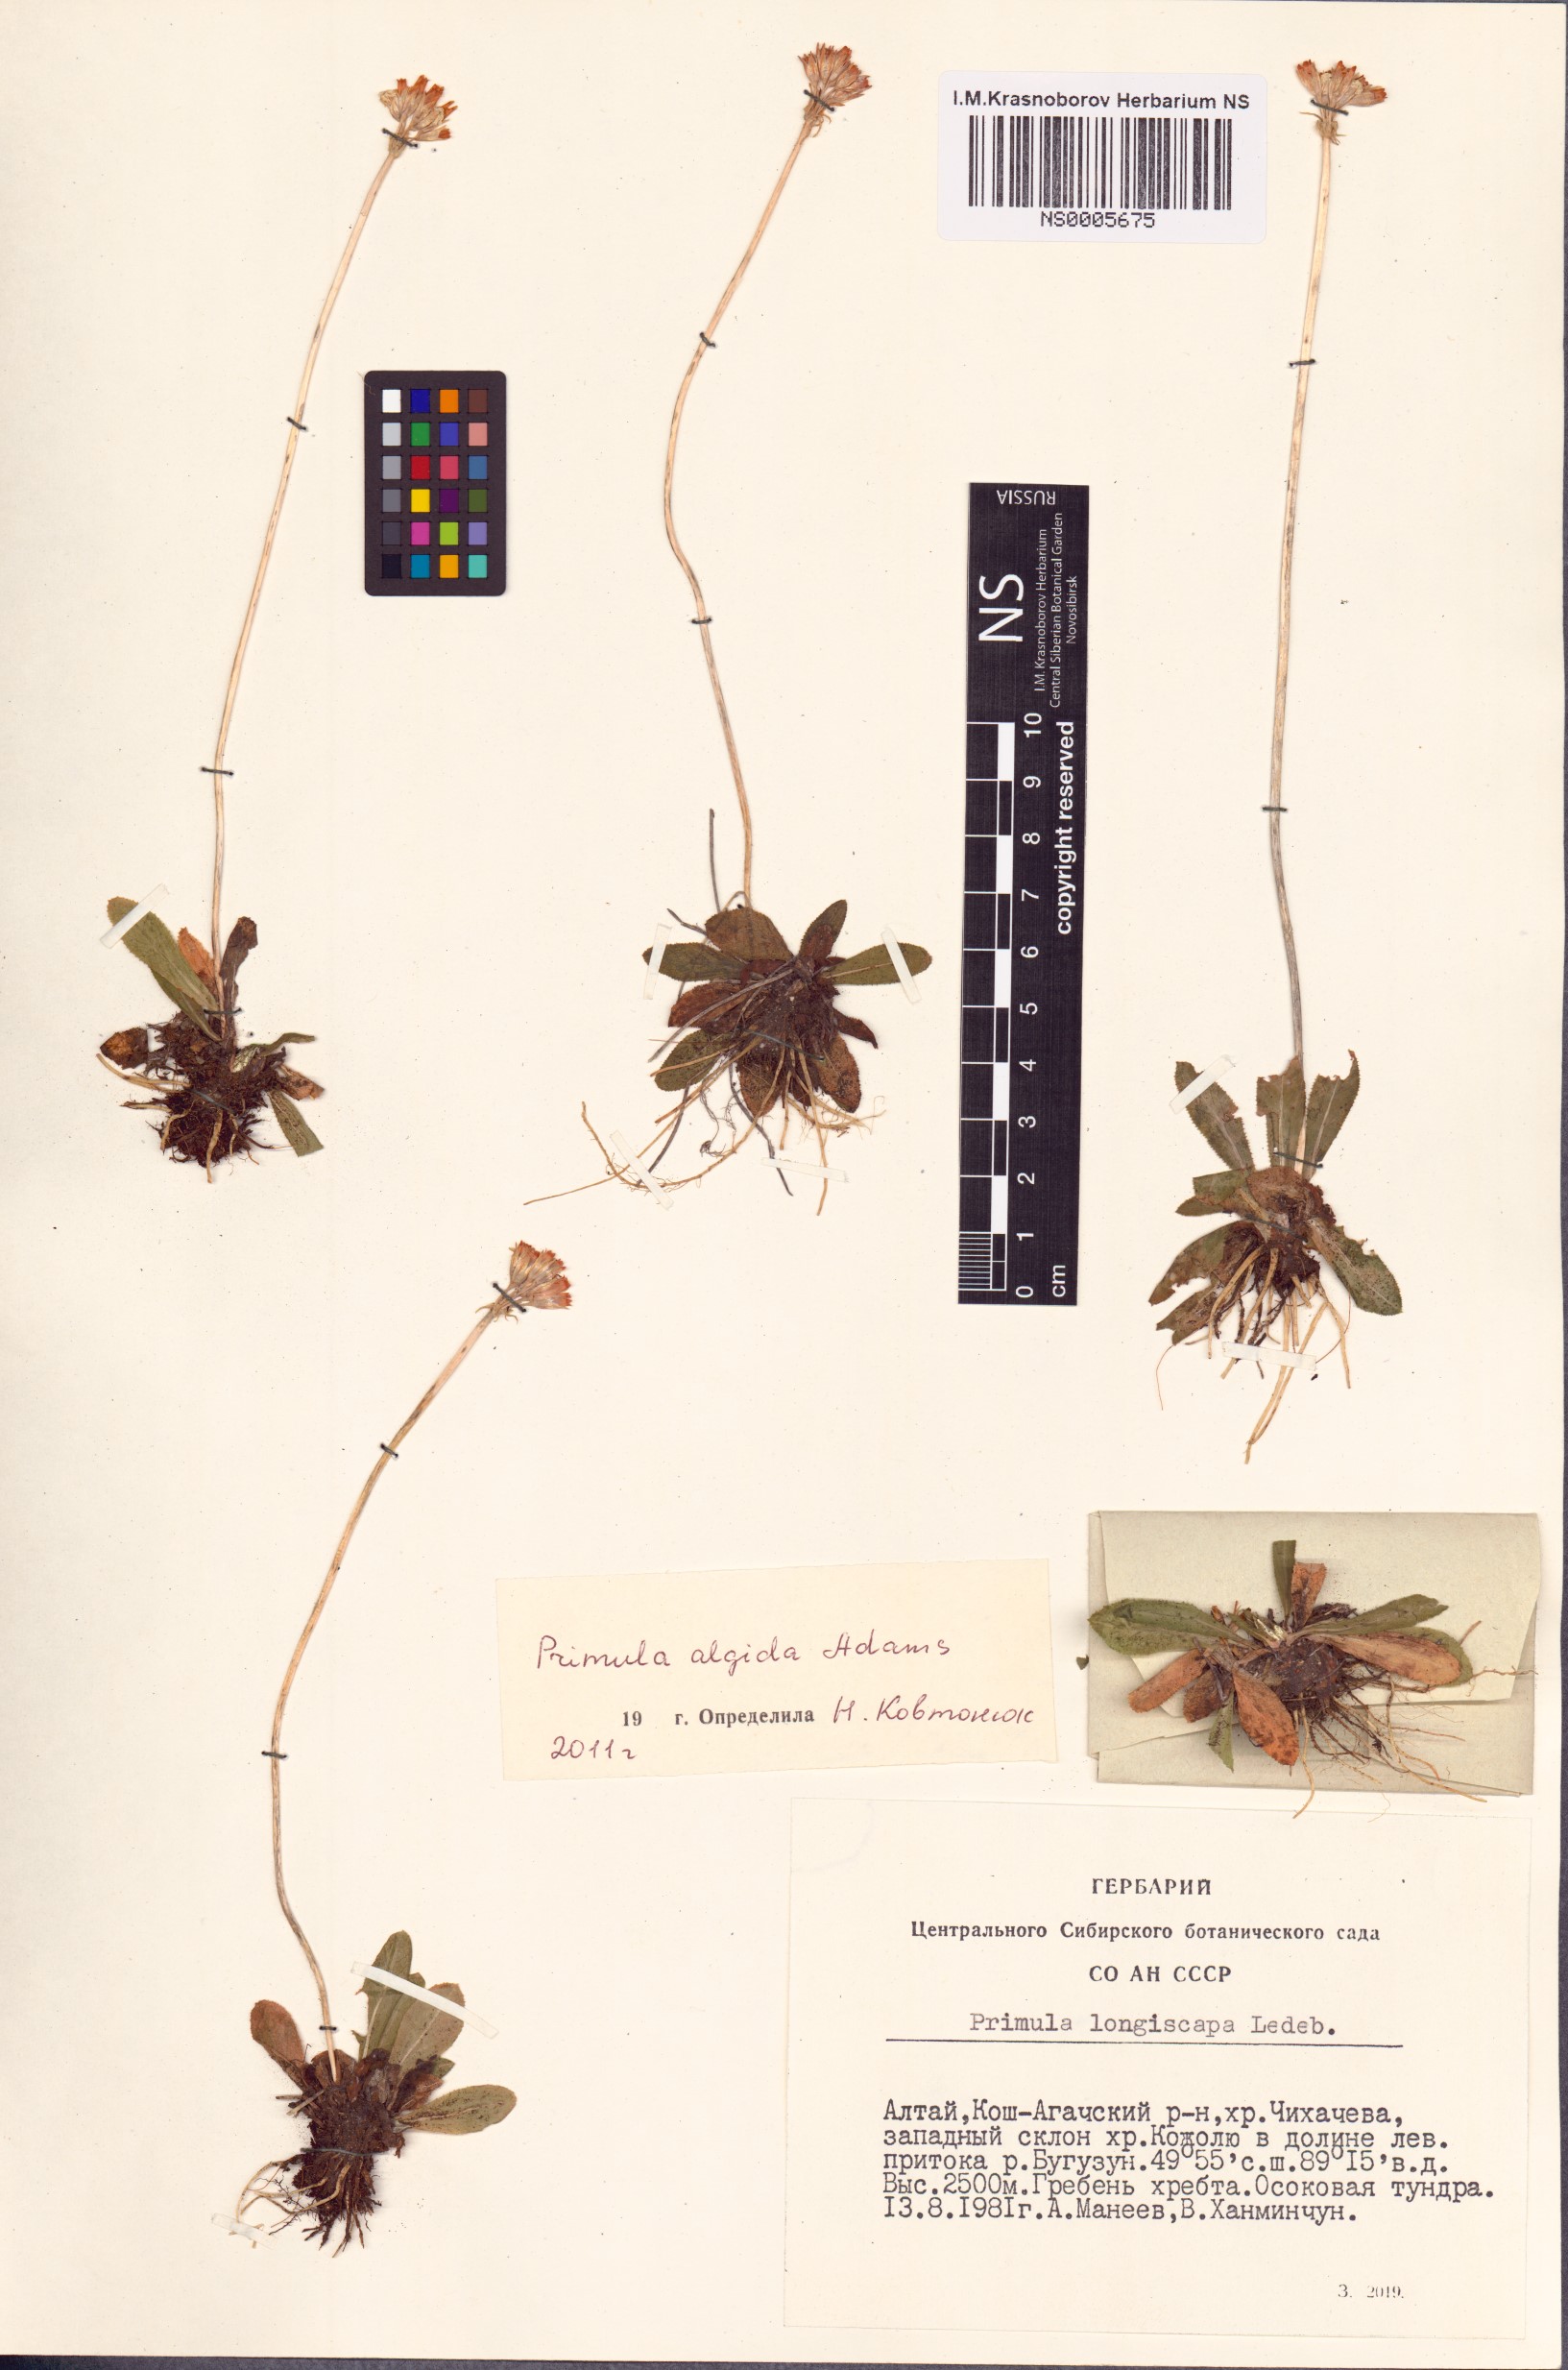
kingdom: Plantae
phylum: Tracheophyta
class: Magnoliopsida
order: Ericales
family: Primulaceae
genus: Primula
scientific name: Primula algida
